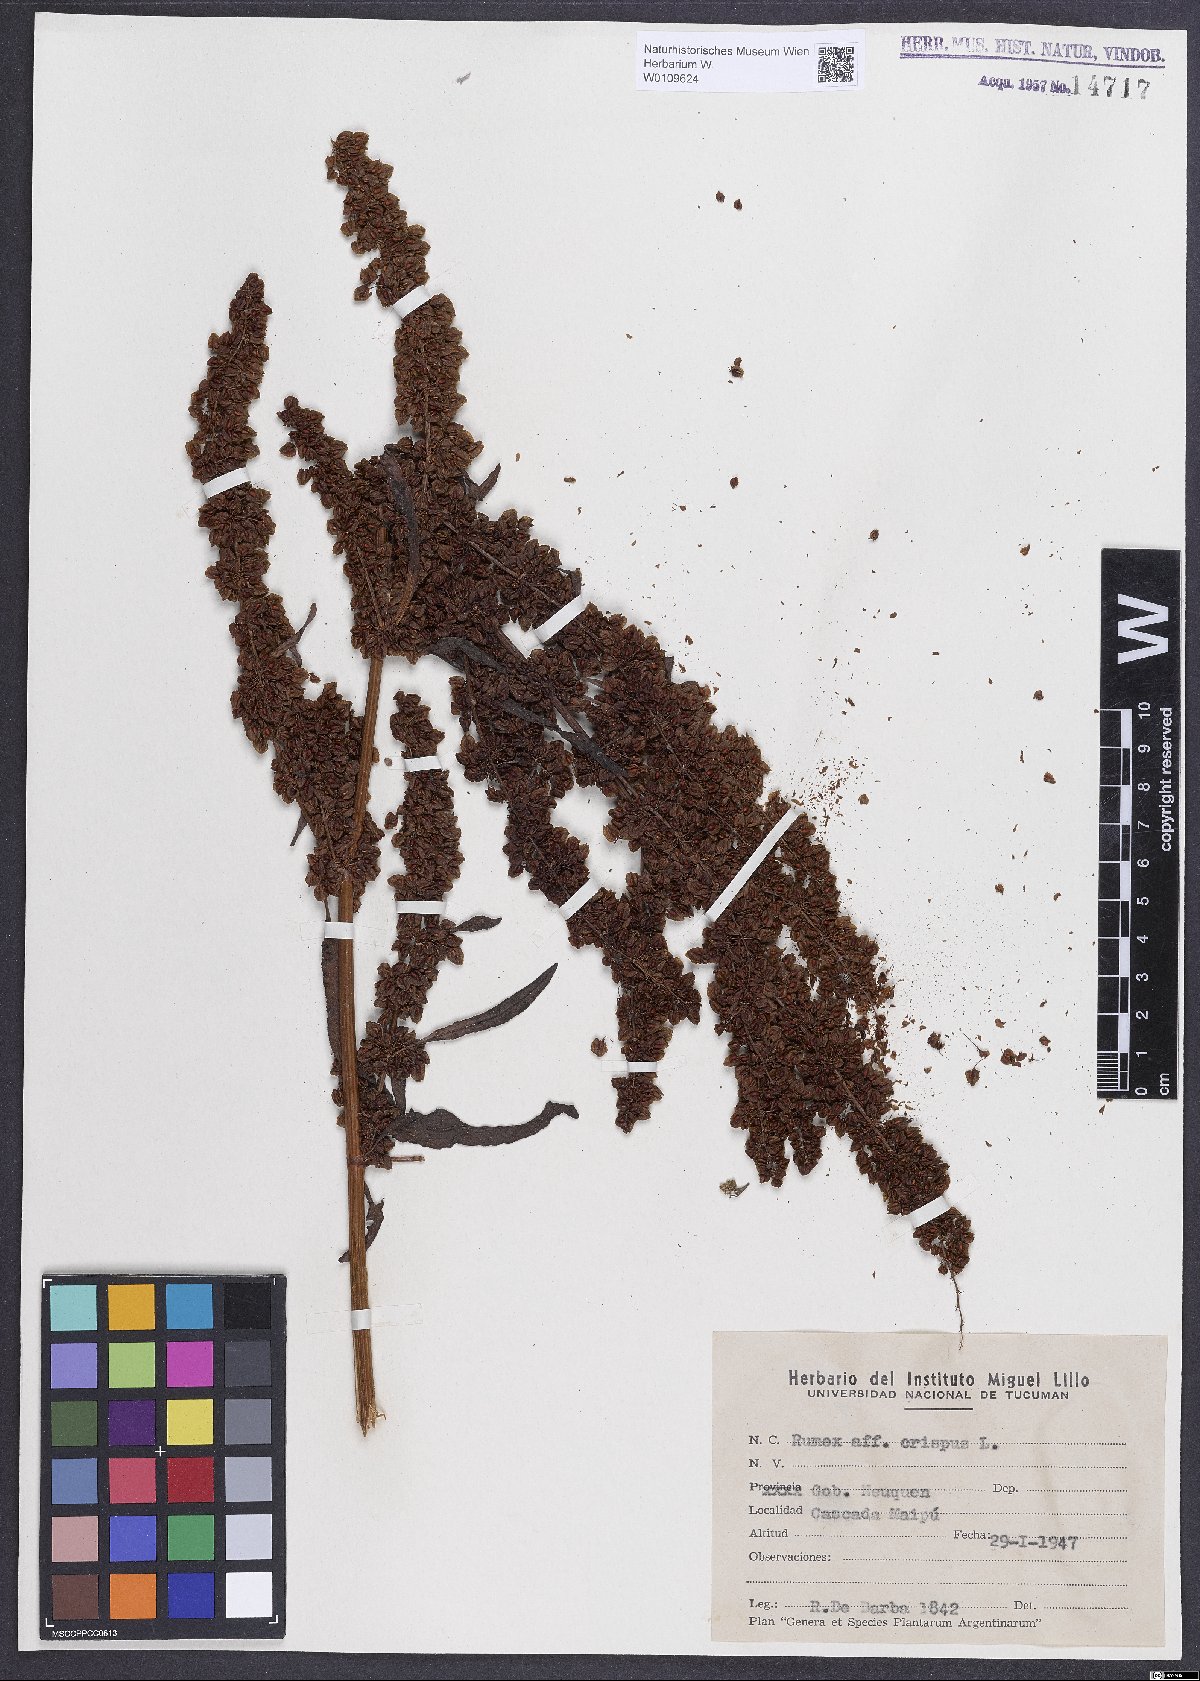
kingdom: Plantae
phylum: Tracheophyta
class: Magnoliopsida
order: Caryophyllales
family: Polygonaceae
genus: Rumex
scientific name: Rumex crispus
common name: Curled dock
